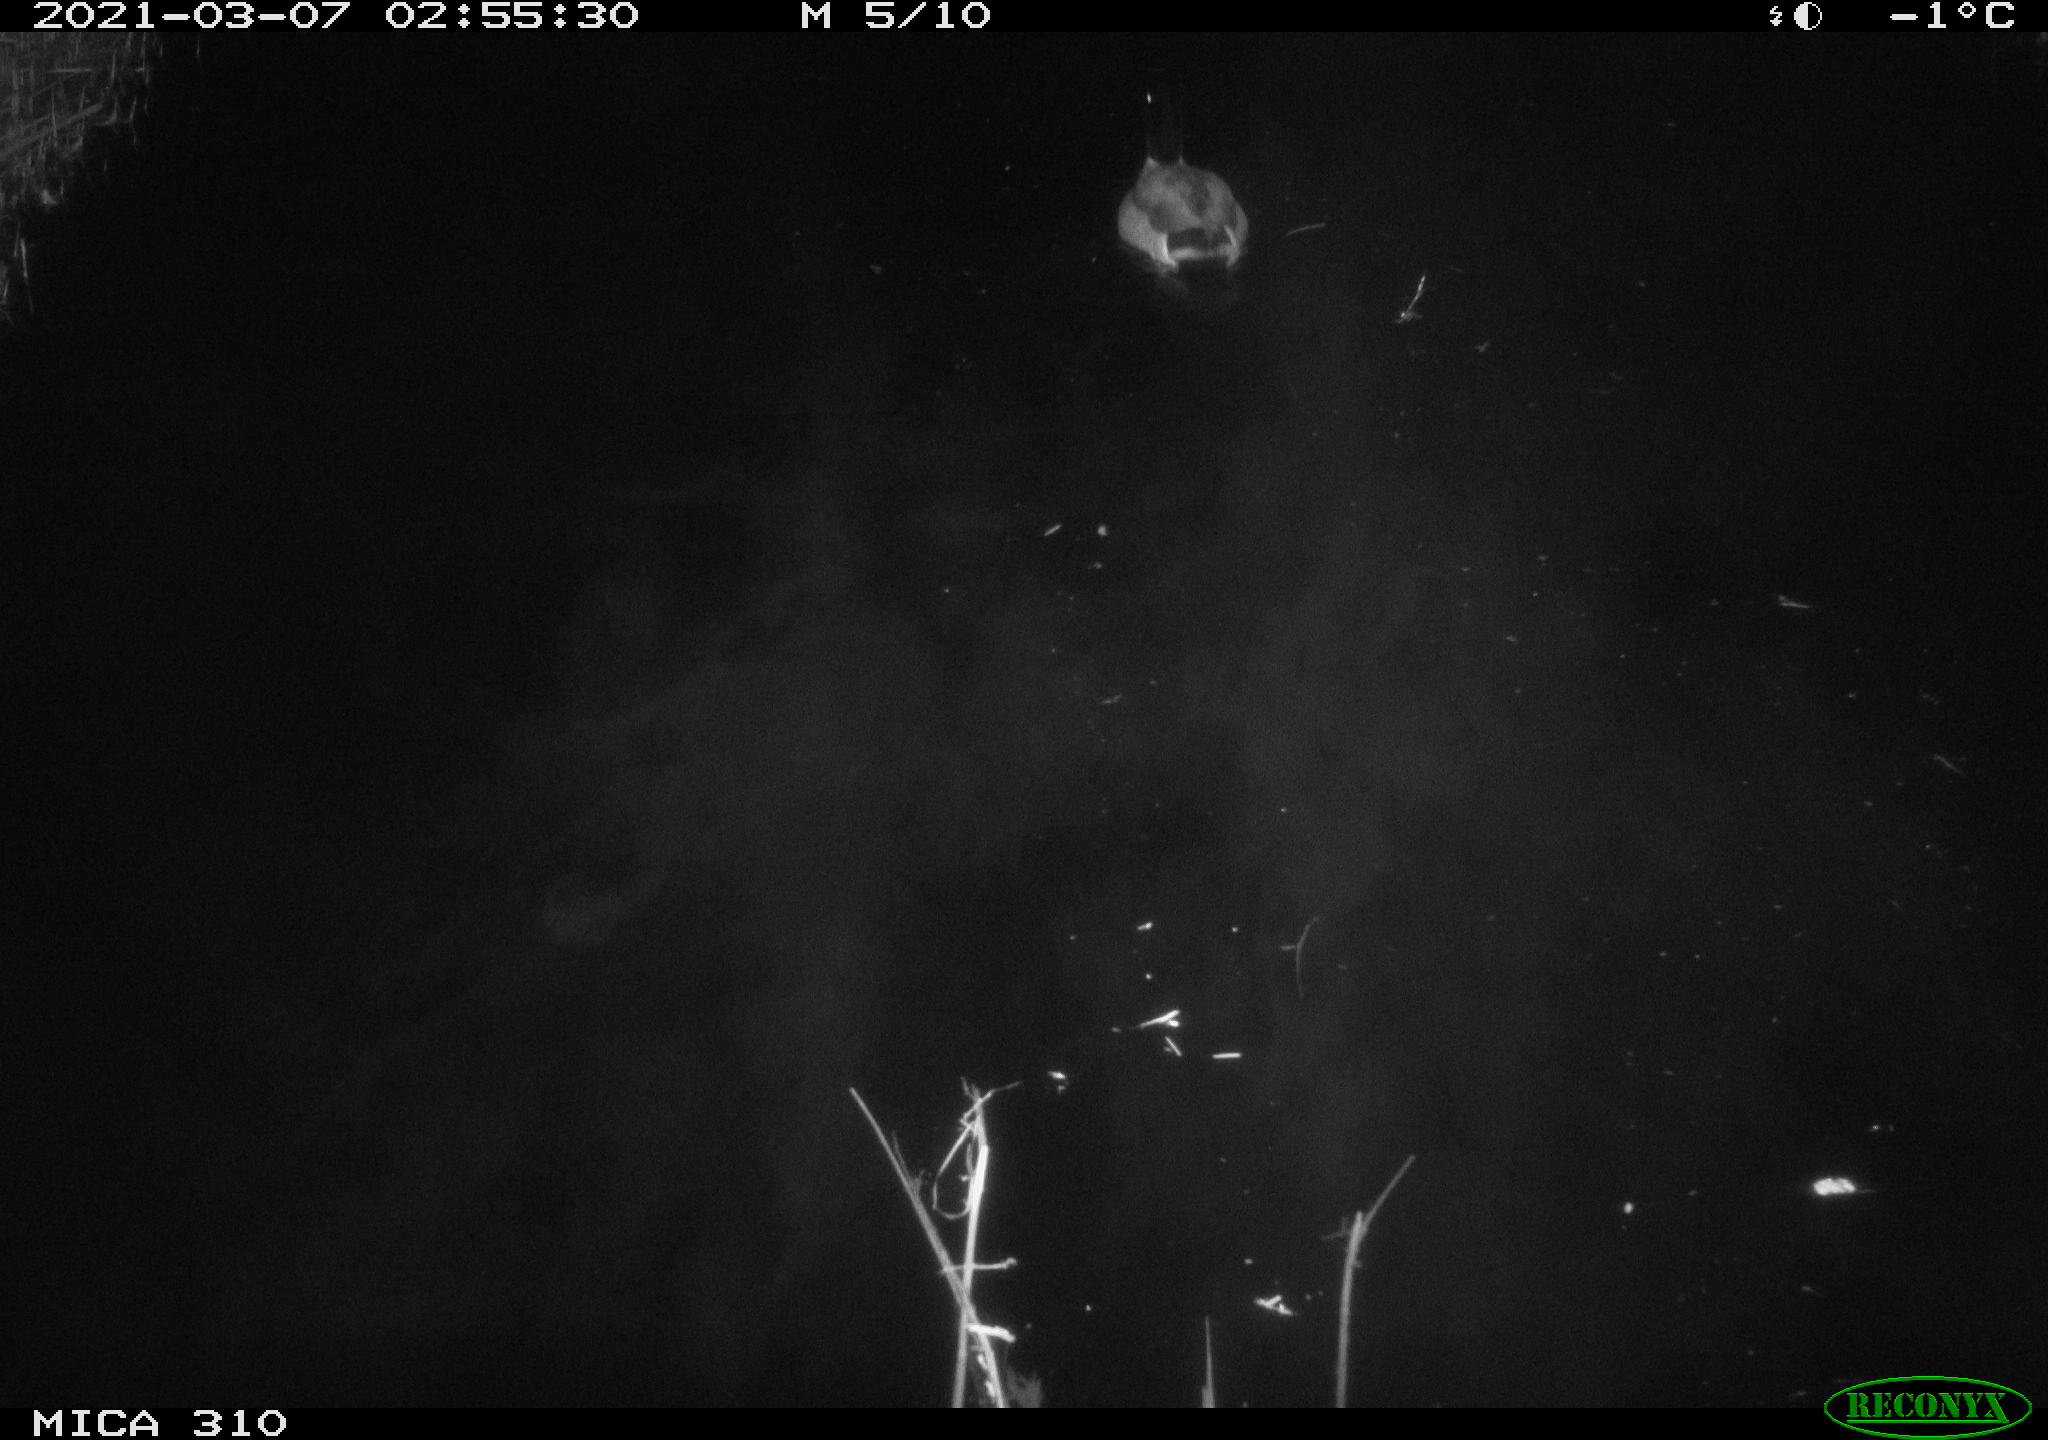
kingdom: Animalia
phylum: Chordata
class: Aves
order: Anseriformes
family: Anatidae
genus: Anas
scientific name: Anas platyrhynchos
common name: Mallard
